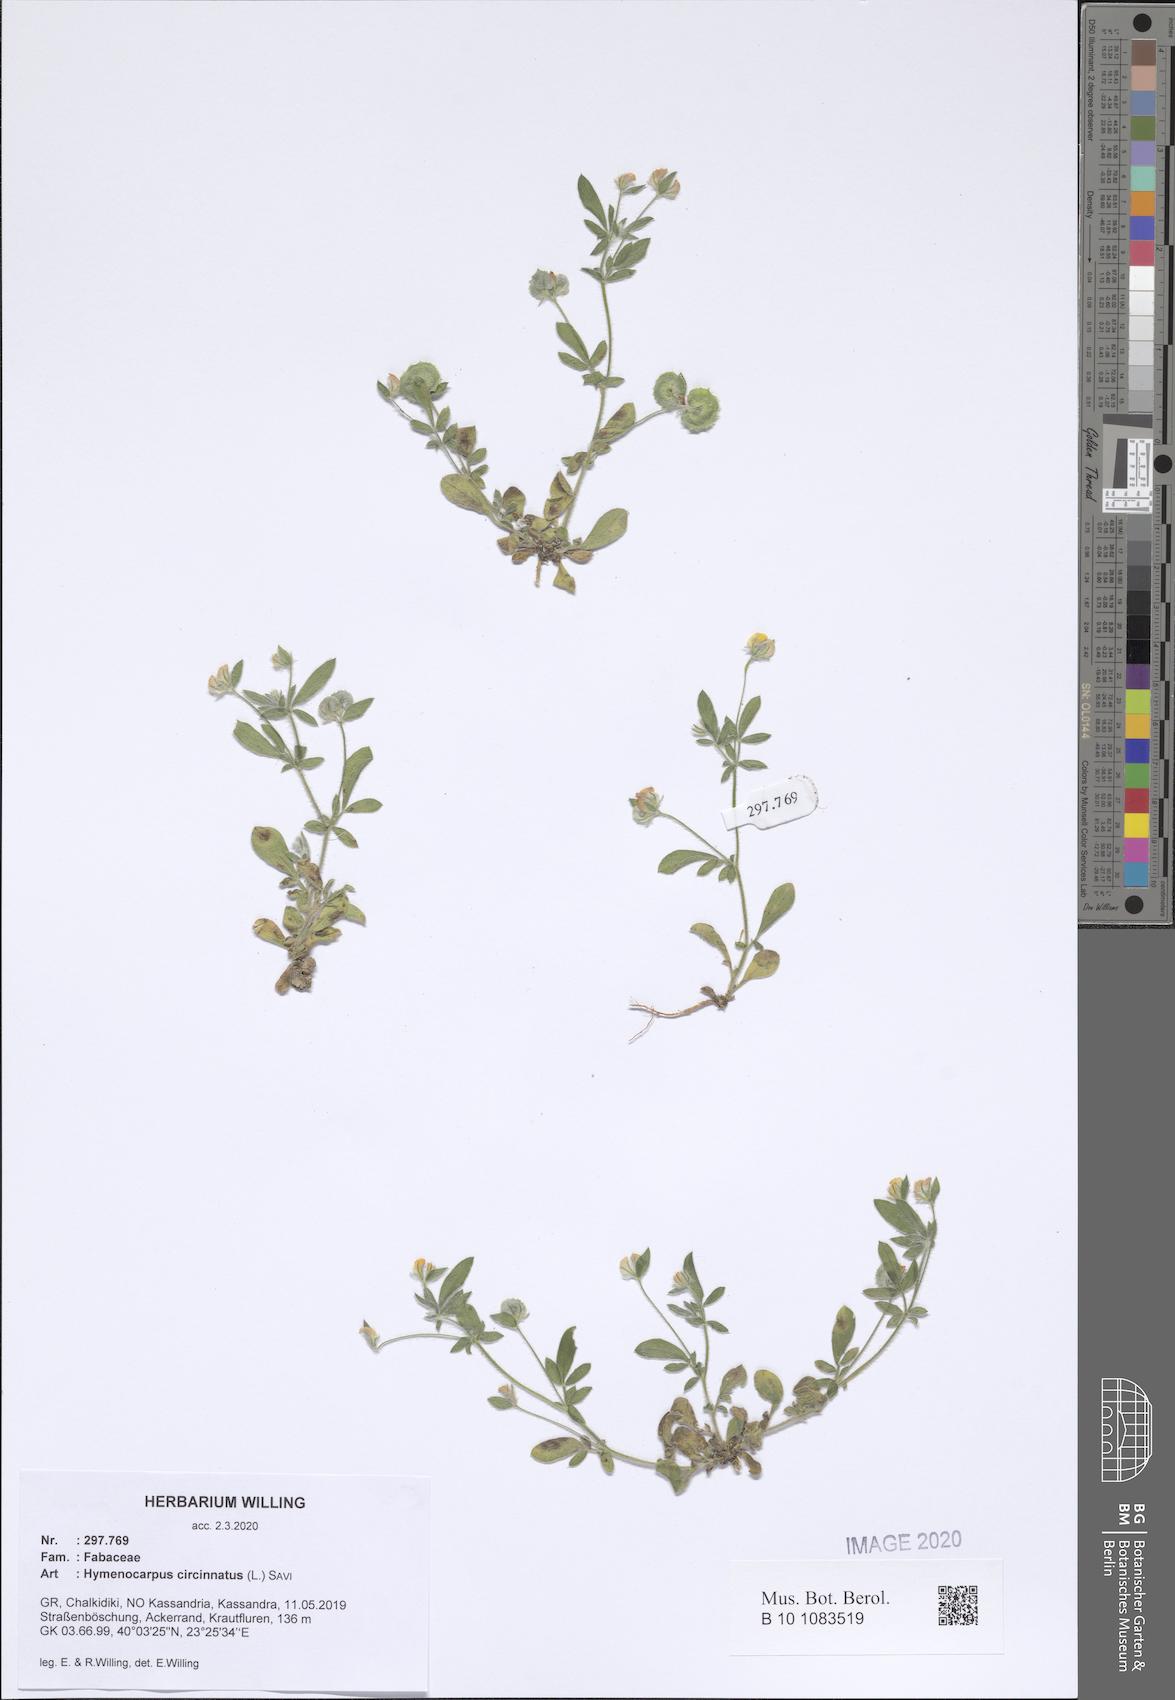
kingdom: Plantae
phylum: Tracheophyta
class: Magnoliopsida
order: Fabales
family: Fabaceae
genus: Anthyllis
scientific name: Anthyllis circinnata
